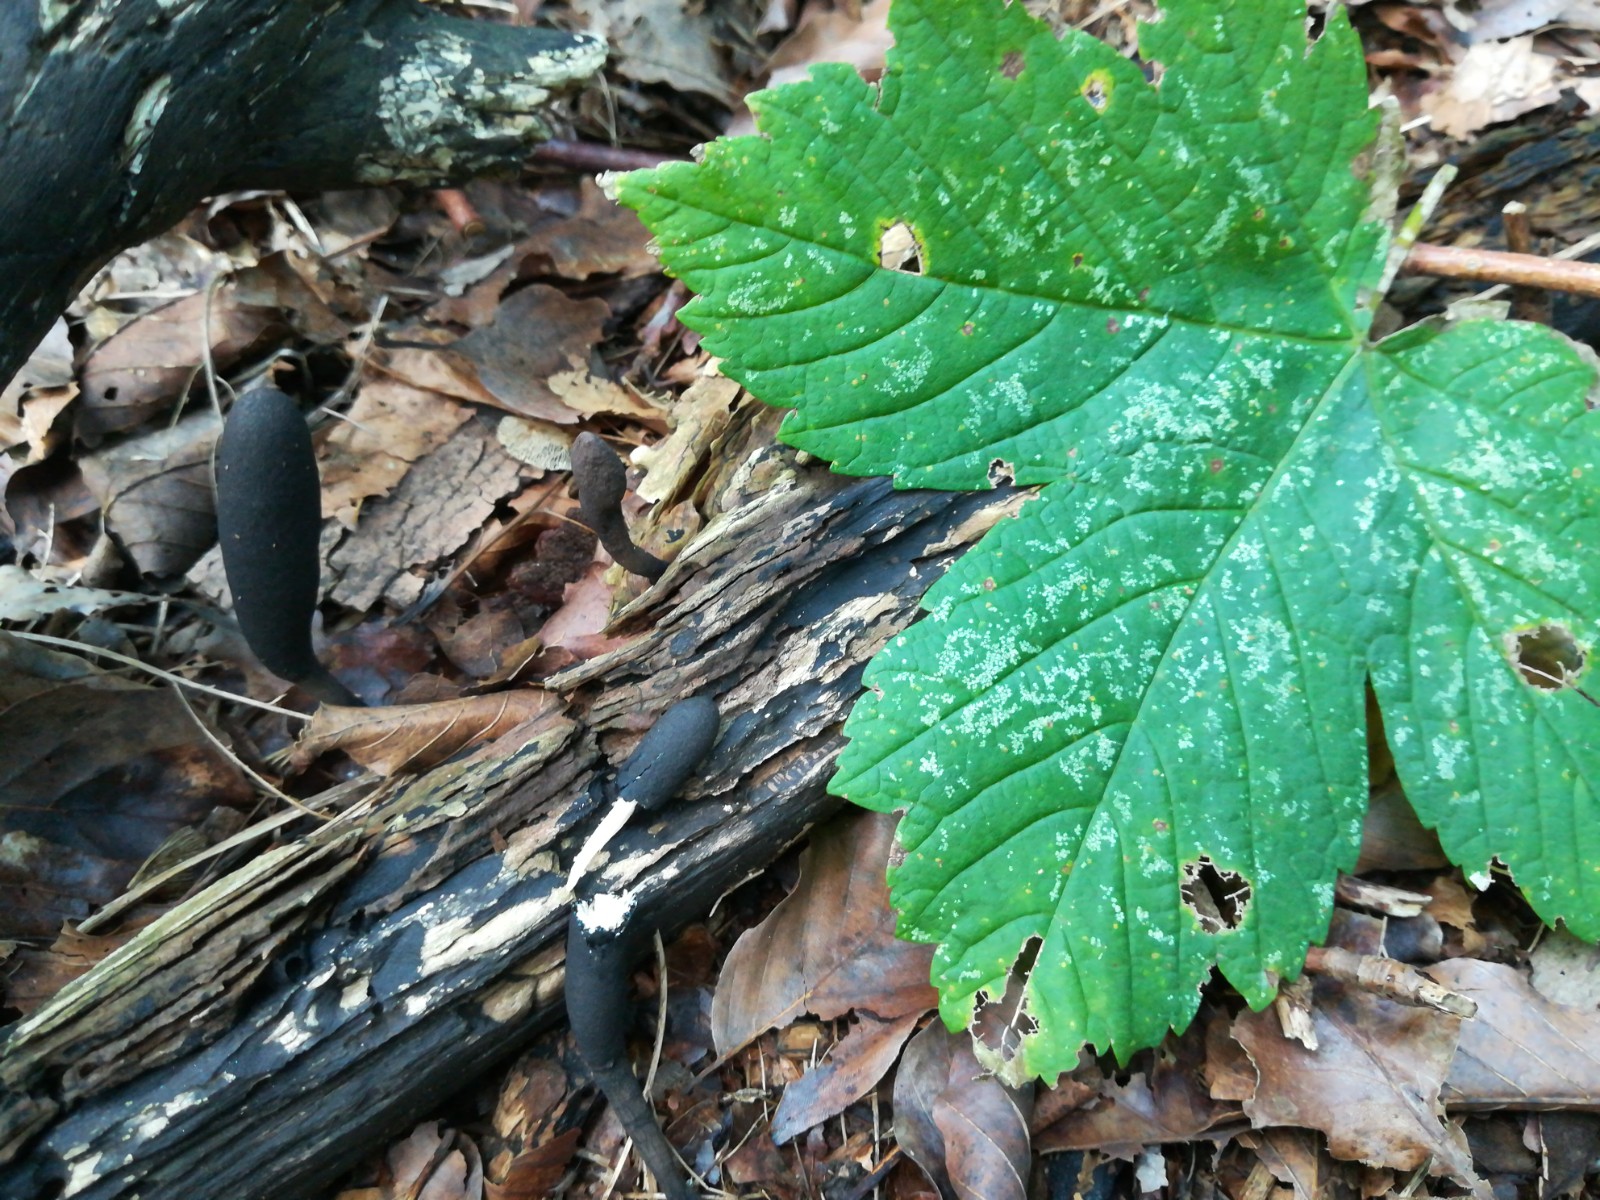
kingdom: Fungi
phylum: Ascomycota
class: Sordariomycetes
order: Xylariales
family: Xylariaceae
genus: Xylaria
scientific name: Xylaria longipes
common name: slank stødsvamp
